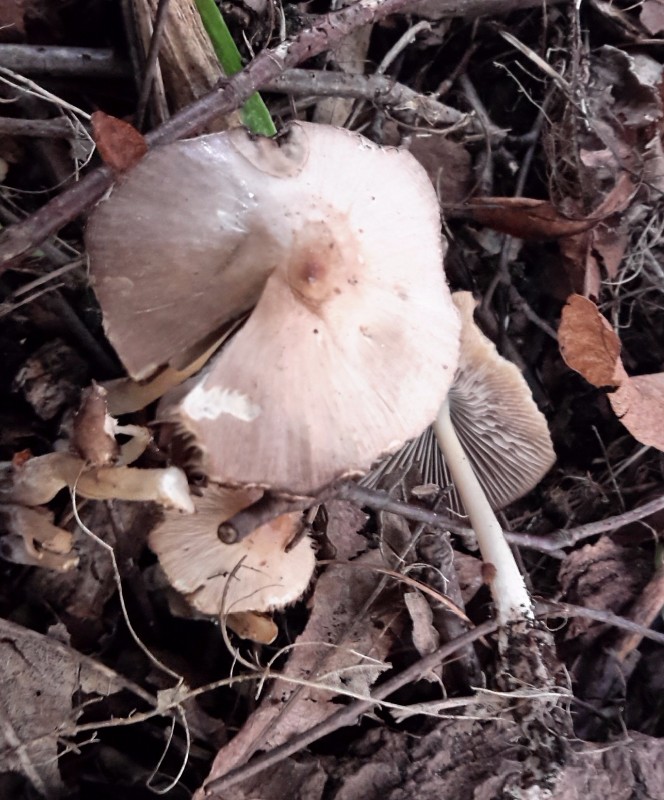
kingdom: Fungi
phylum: Basidiomycota
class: Agaricomycetes
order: Agaricales
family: Psathyrellaceae
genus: Candolleomyces
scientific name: Candolleomyces candolleanus
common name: Candolles mørkhat
